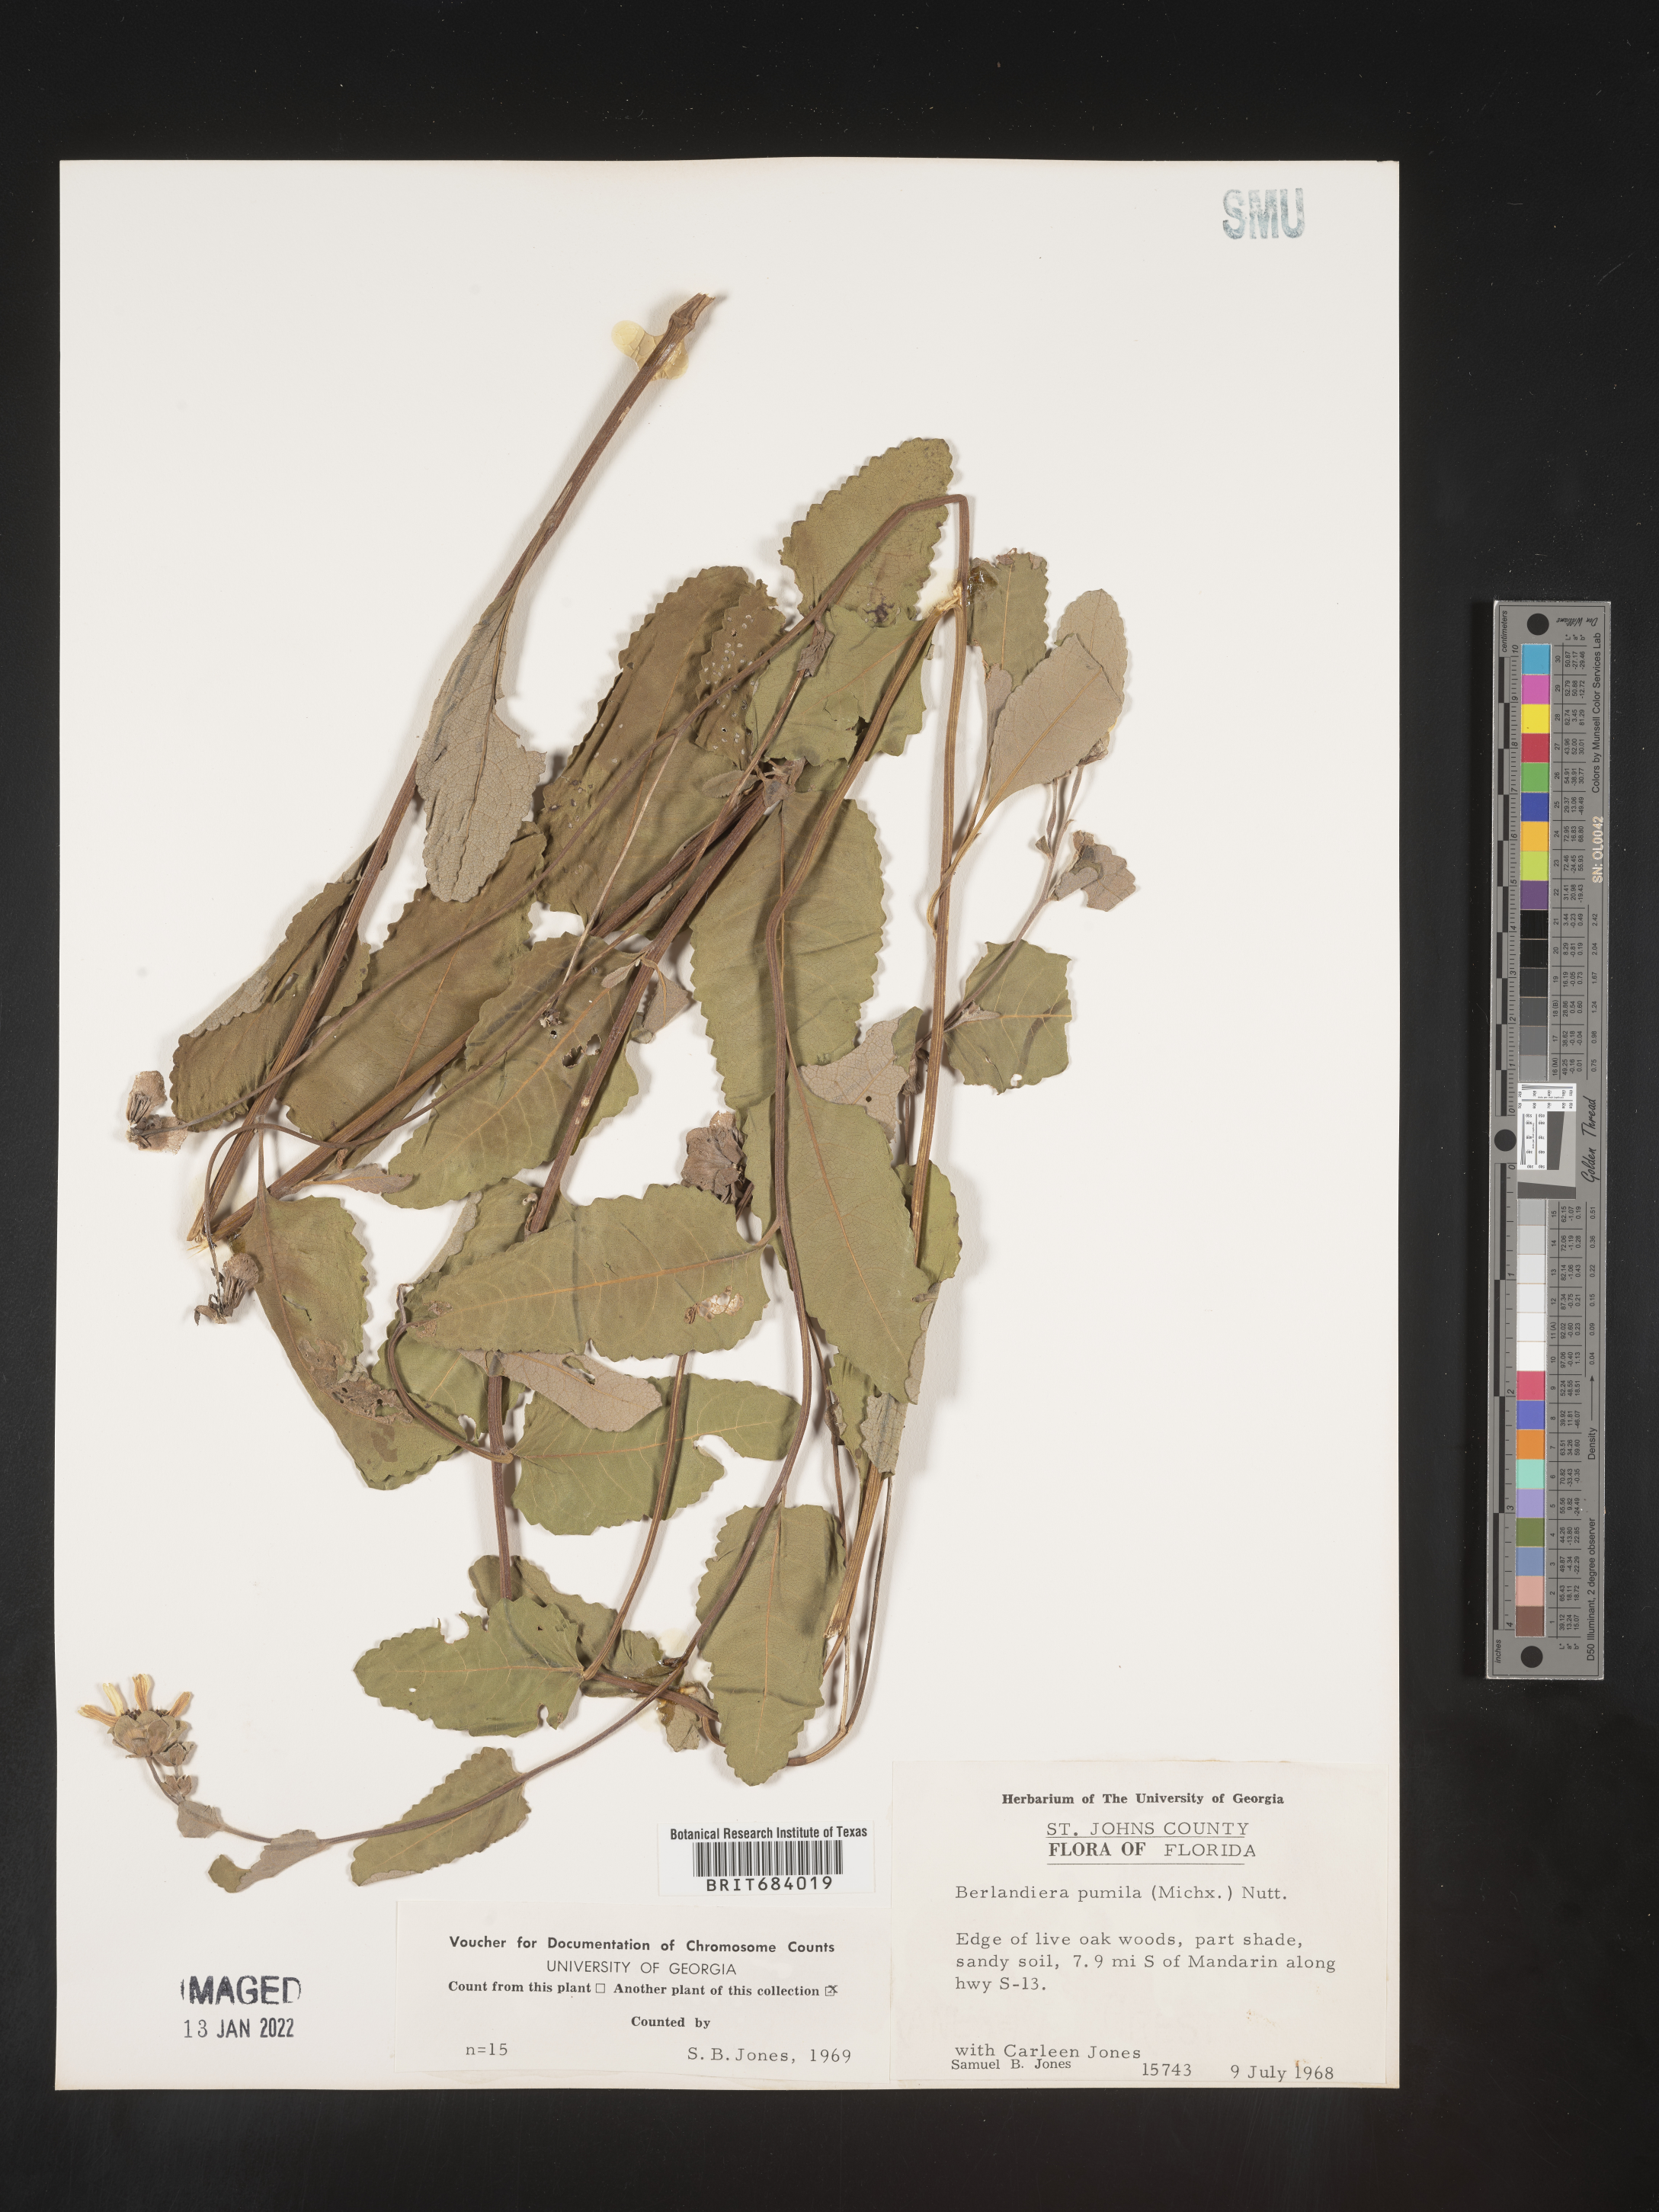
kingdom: Plantae
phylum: Tracheophyta
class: Magnoliopsida
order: Asterales
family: Asteraceae
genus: Berlandiera
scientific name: Berlandiera pumila
